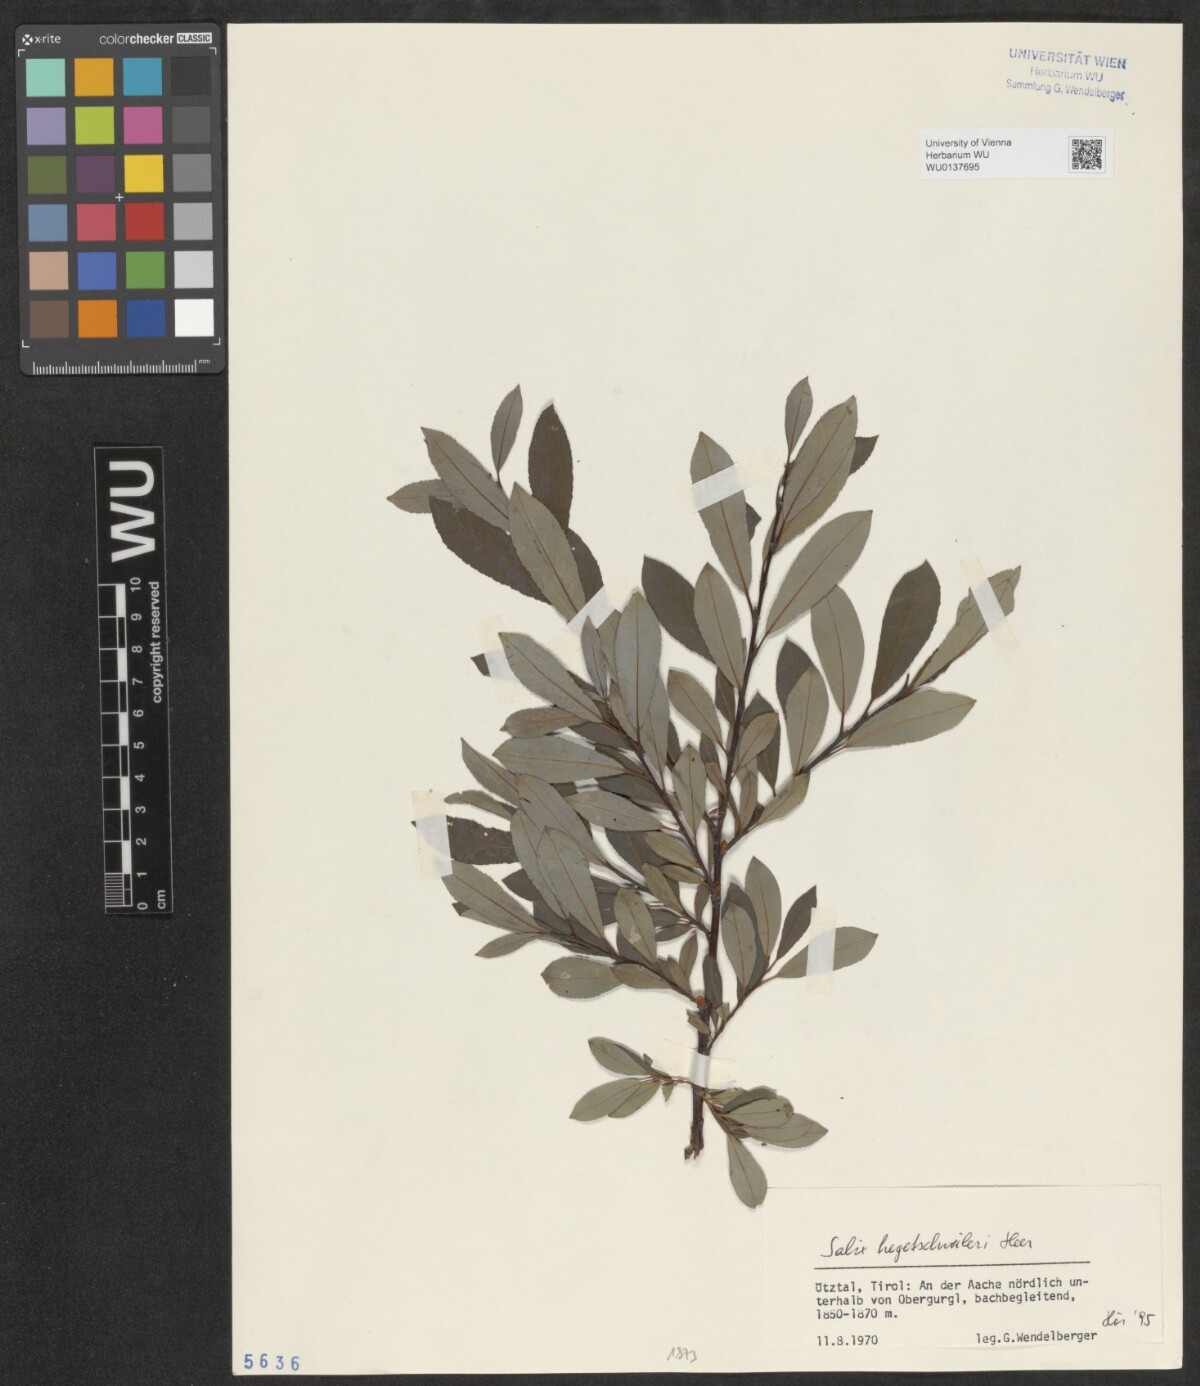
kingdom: Plantae
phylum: Tracheophyta
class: Magnoliopsida
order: Malpighiales
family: Salicaceae
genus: Salix
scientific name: Salix hegetschweileri
